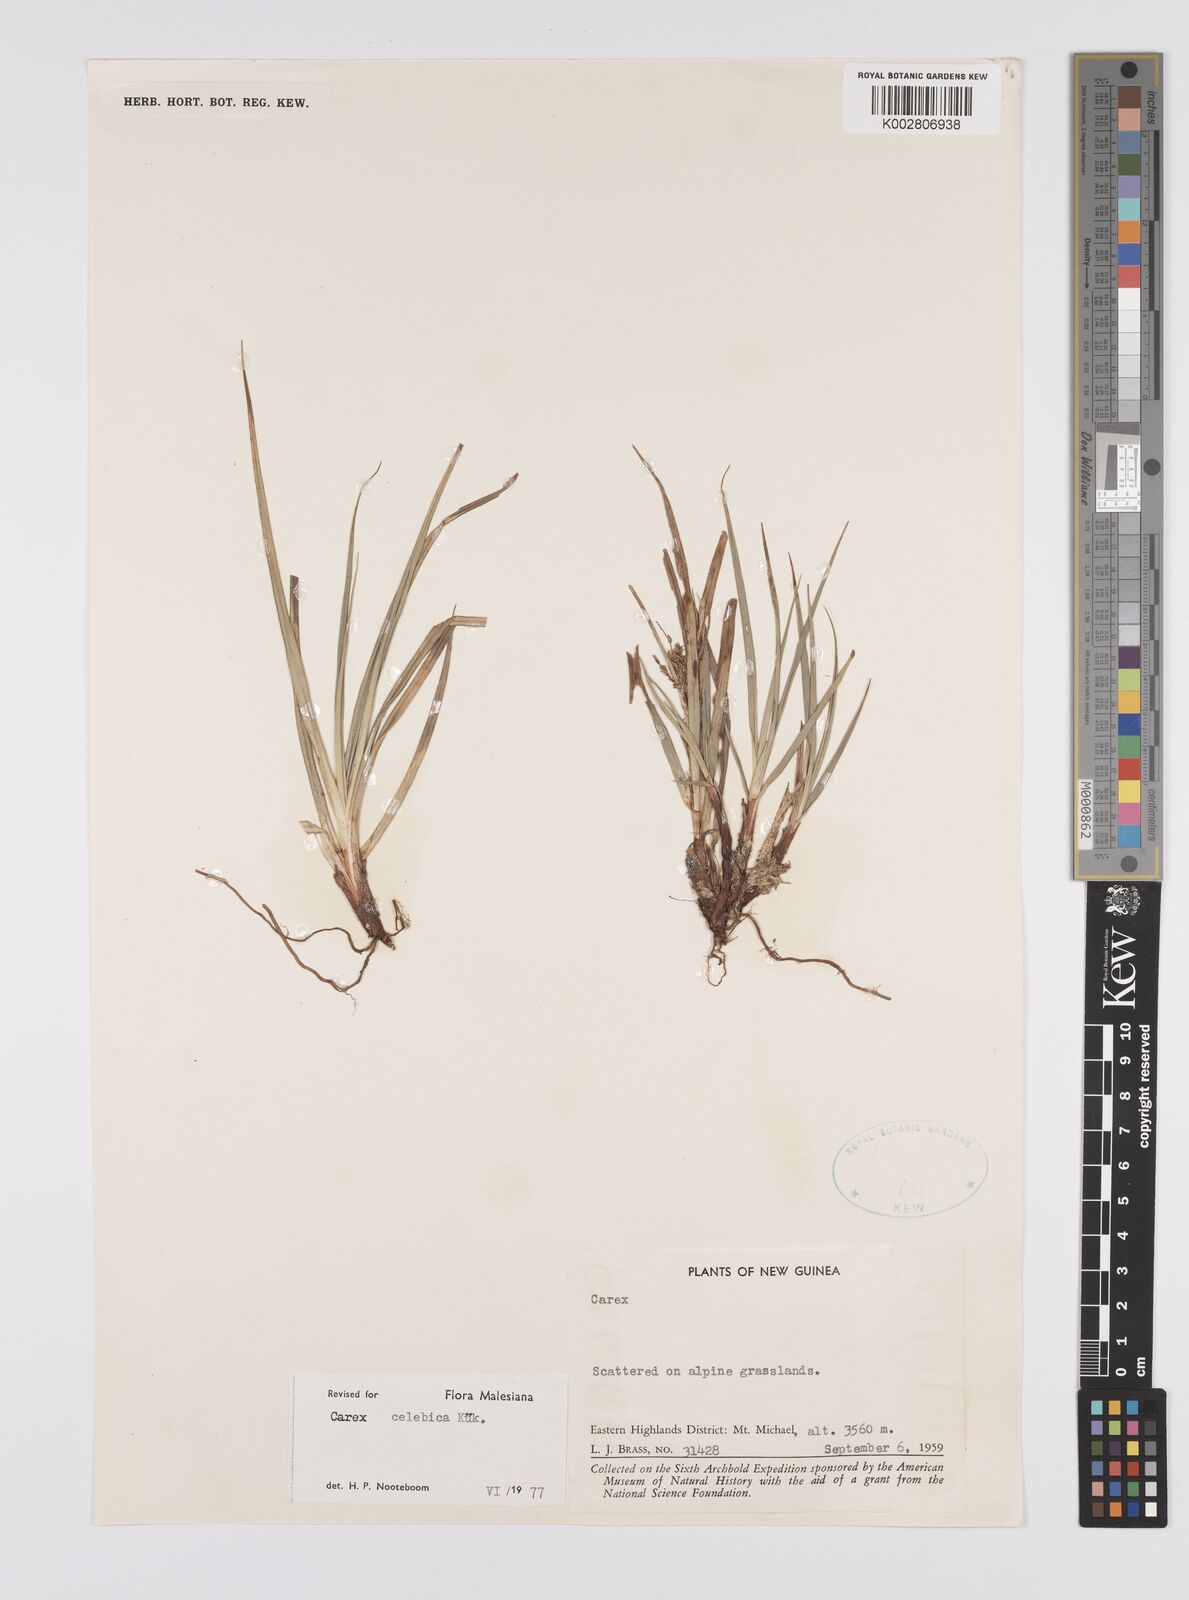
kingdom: Plantae
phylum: Tracheophyta
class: Liliopsida
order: Poales
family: Cyperaceae
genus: Carex
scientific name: Carex celebica
